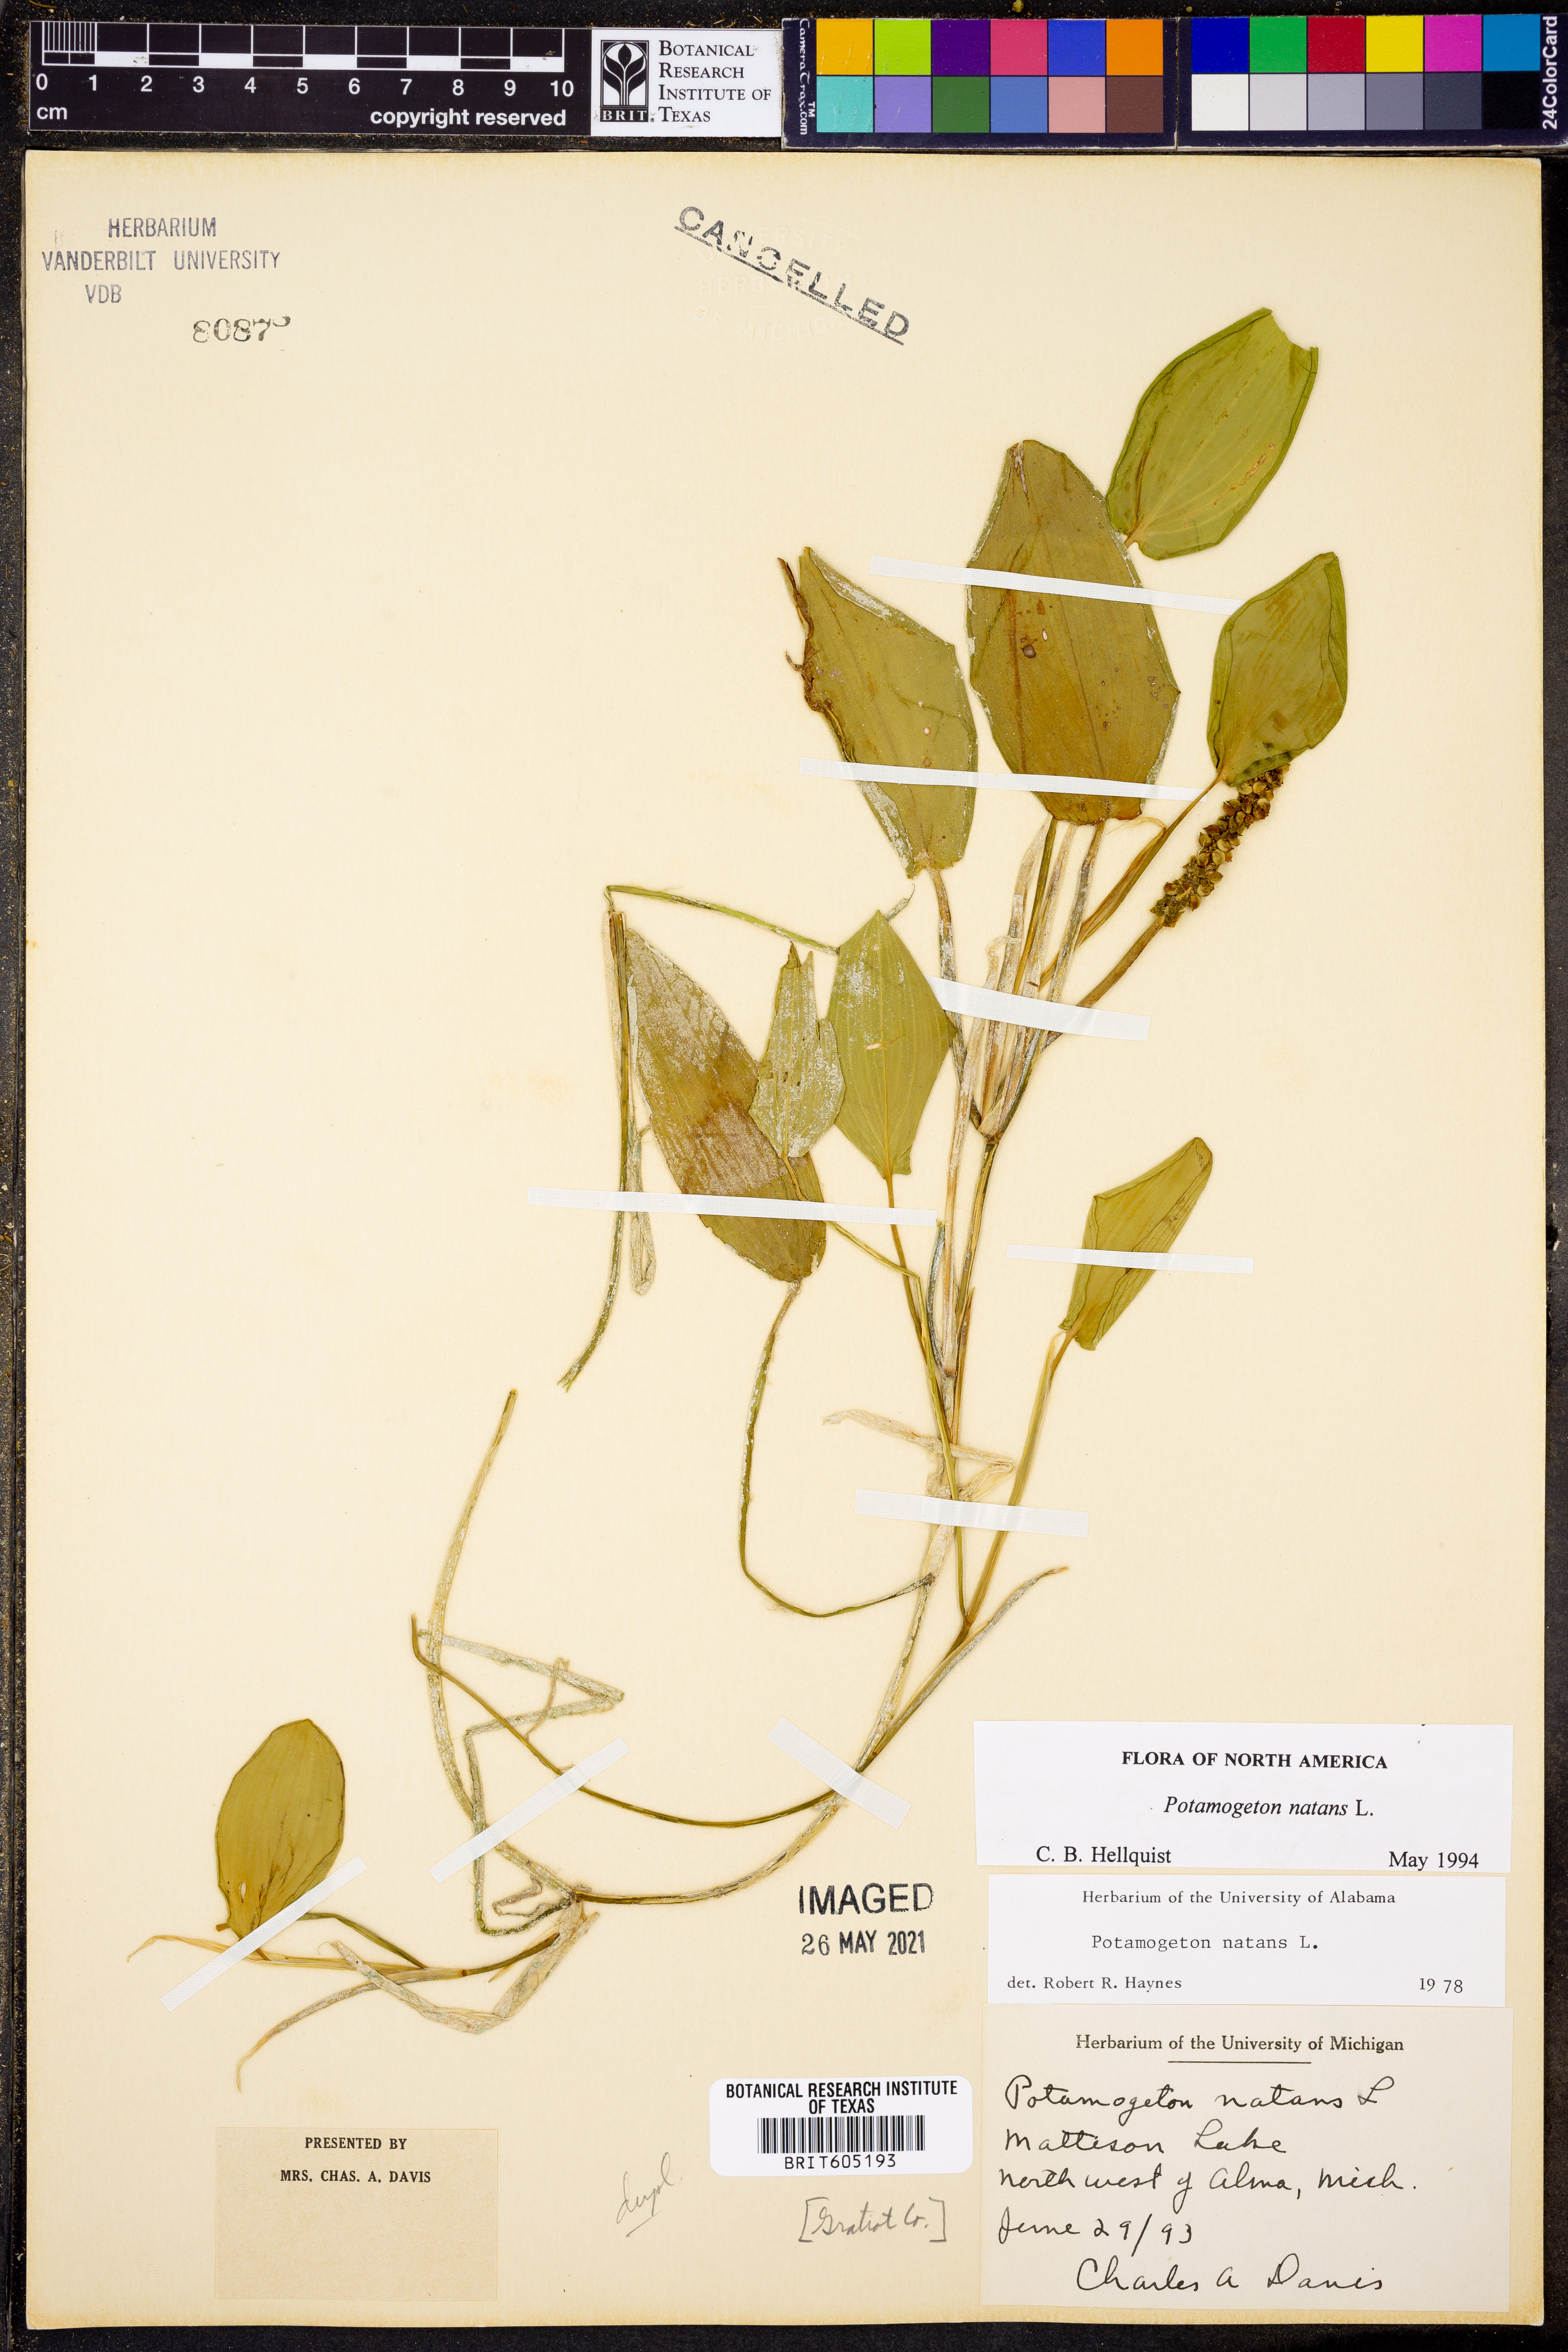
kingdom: Plantae
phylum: Tracheophyta
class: Liliopsida
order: Alismatales
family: Potamogetonaceae
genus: Potamogeton
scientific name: Potamogeton natans
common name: Broad-leaved pondweed
